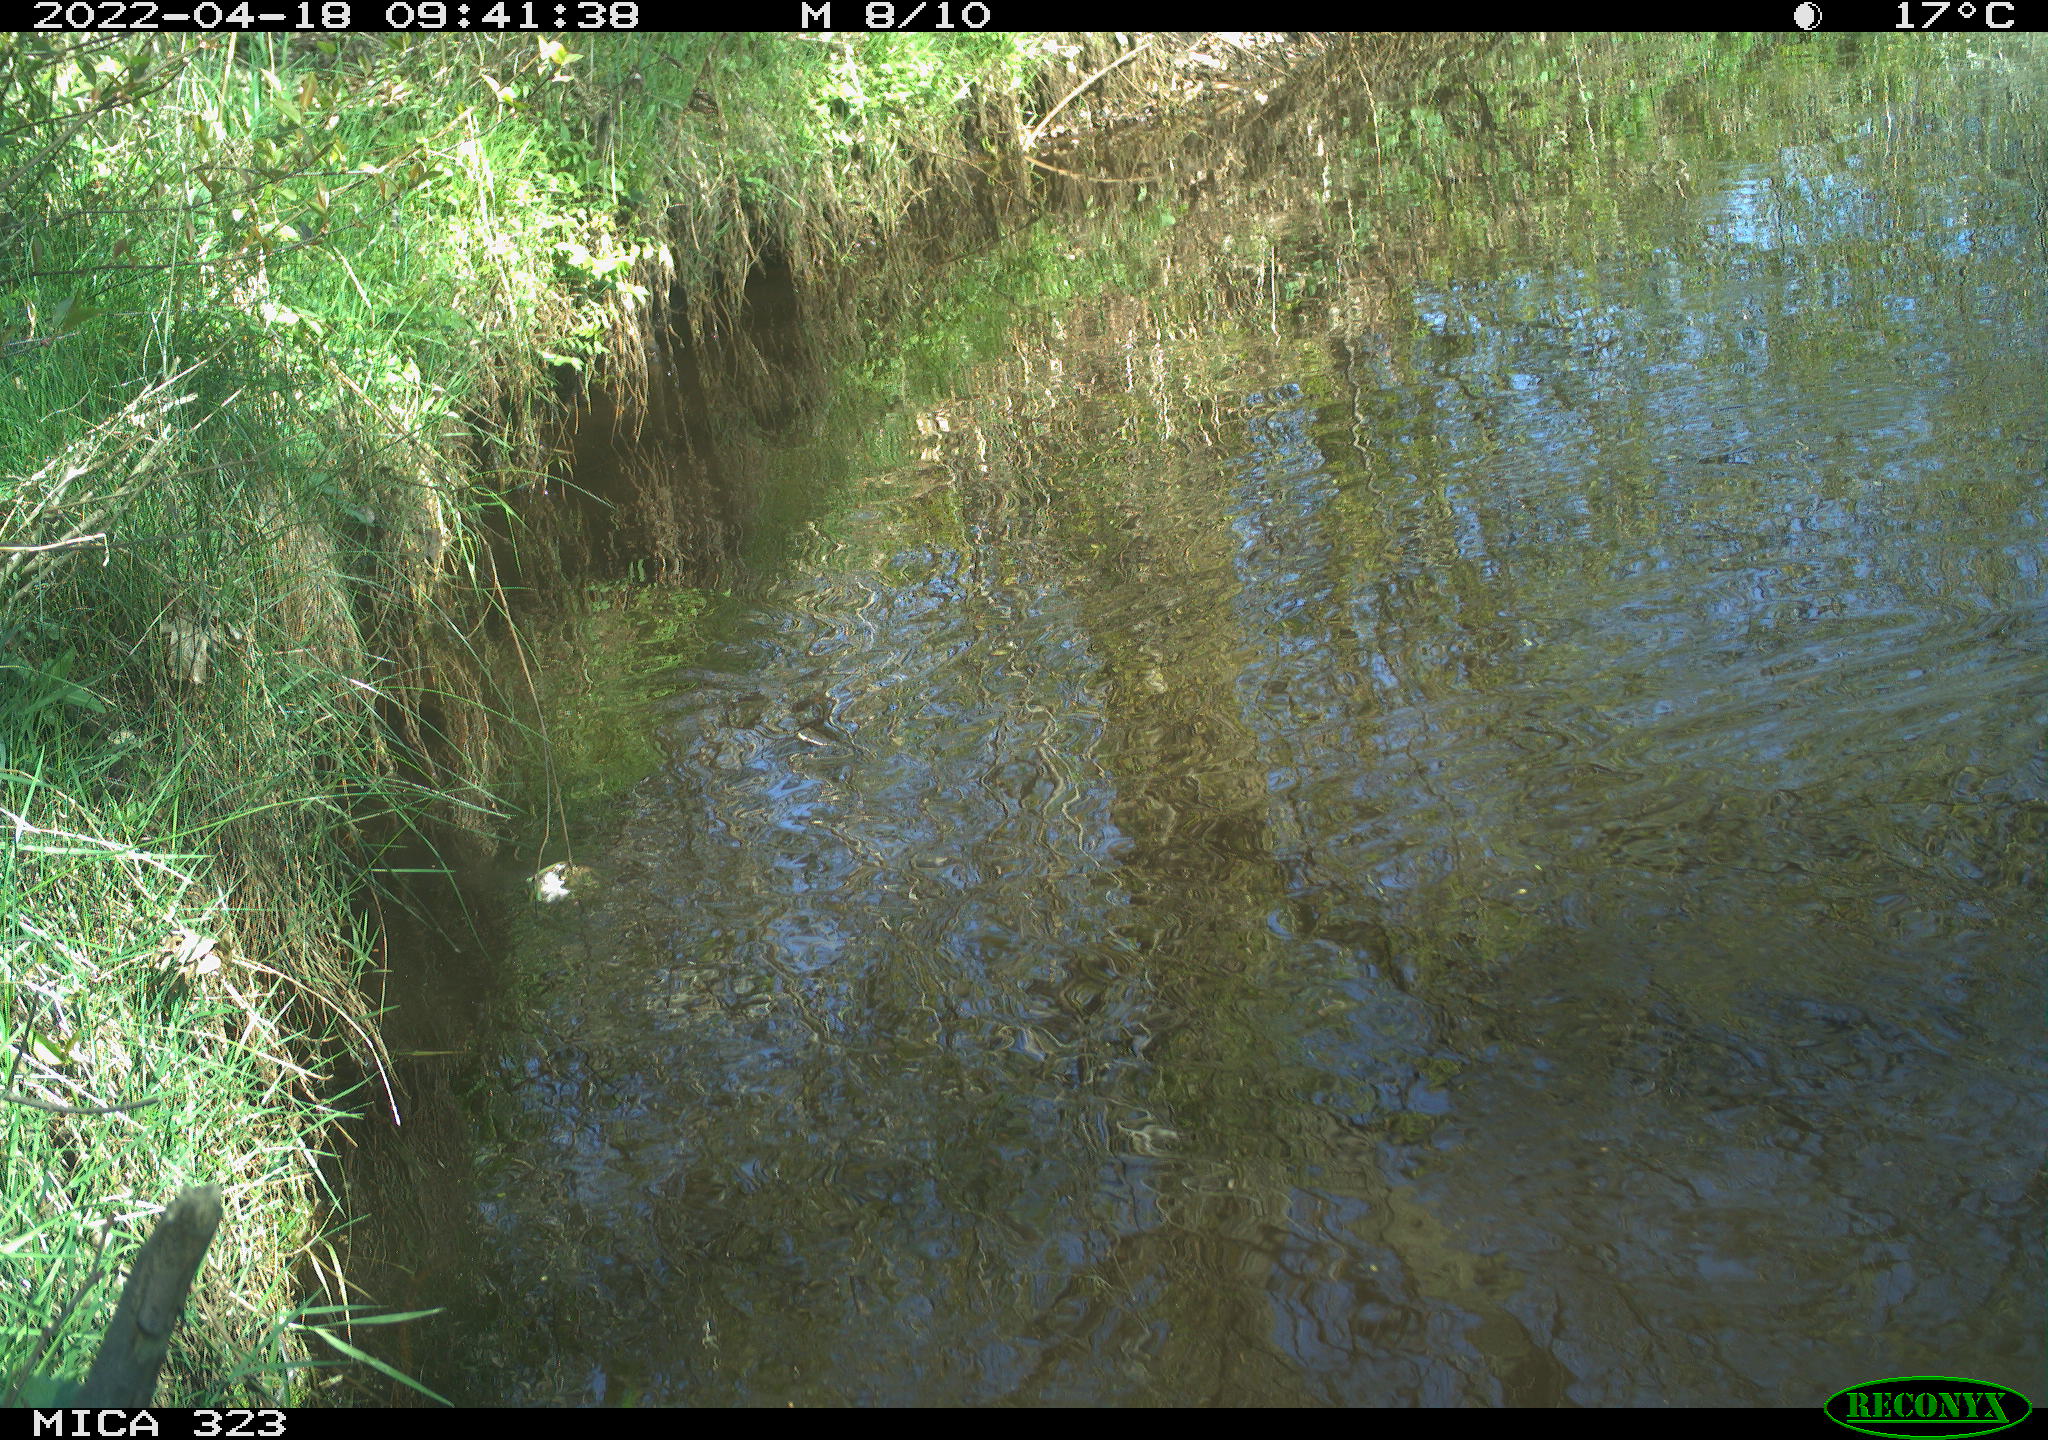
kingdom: Animalia
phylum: Chordata
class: Aves
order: Gruiformes
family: Rallidae
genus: Gallinula
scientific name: Gallinula chloropus
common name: Common moorhen
